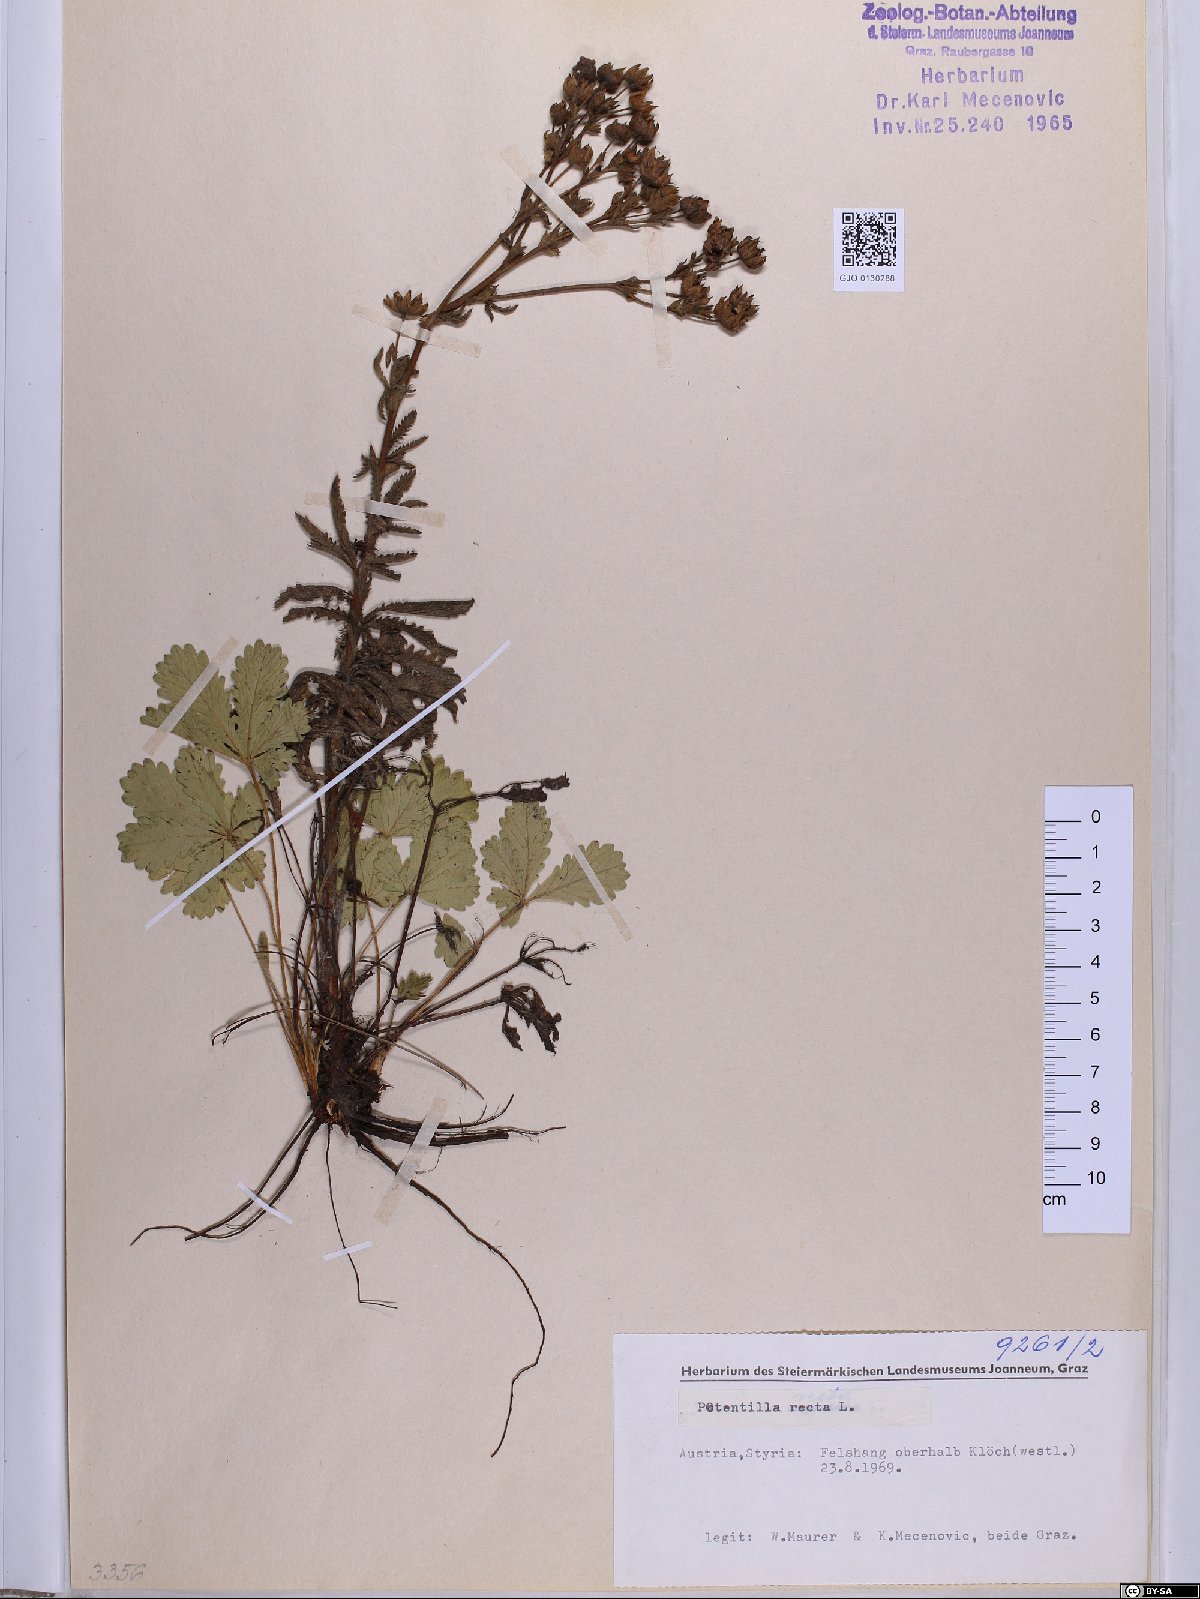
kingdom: Plantae
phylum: Tracheophyta
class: Magnoliopsida
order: Rosales
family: Rosaceae
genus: Potentilla
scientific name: Potentilla recta
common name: Sulphur cinquefoil
